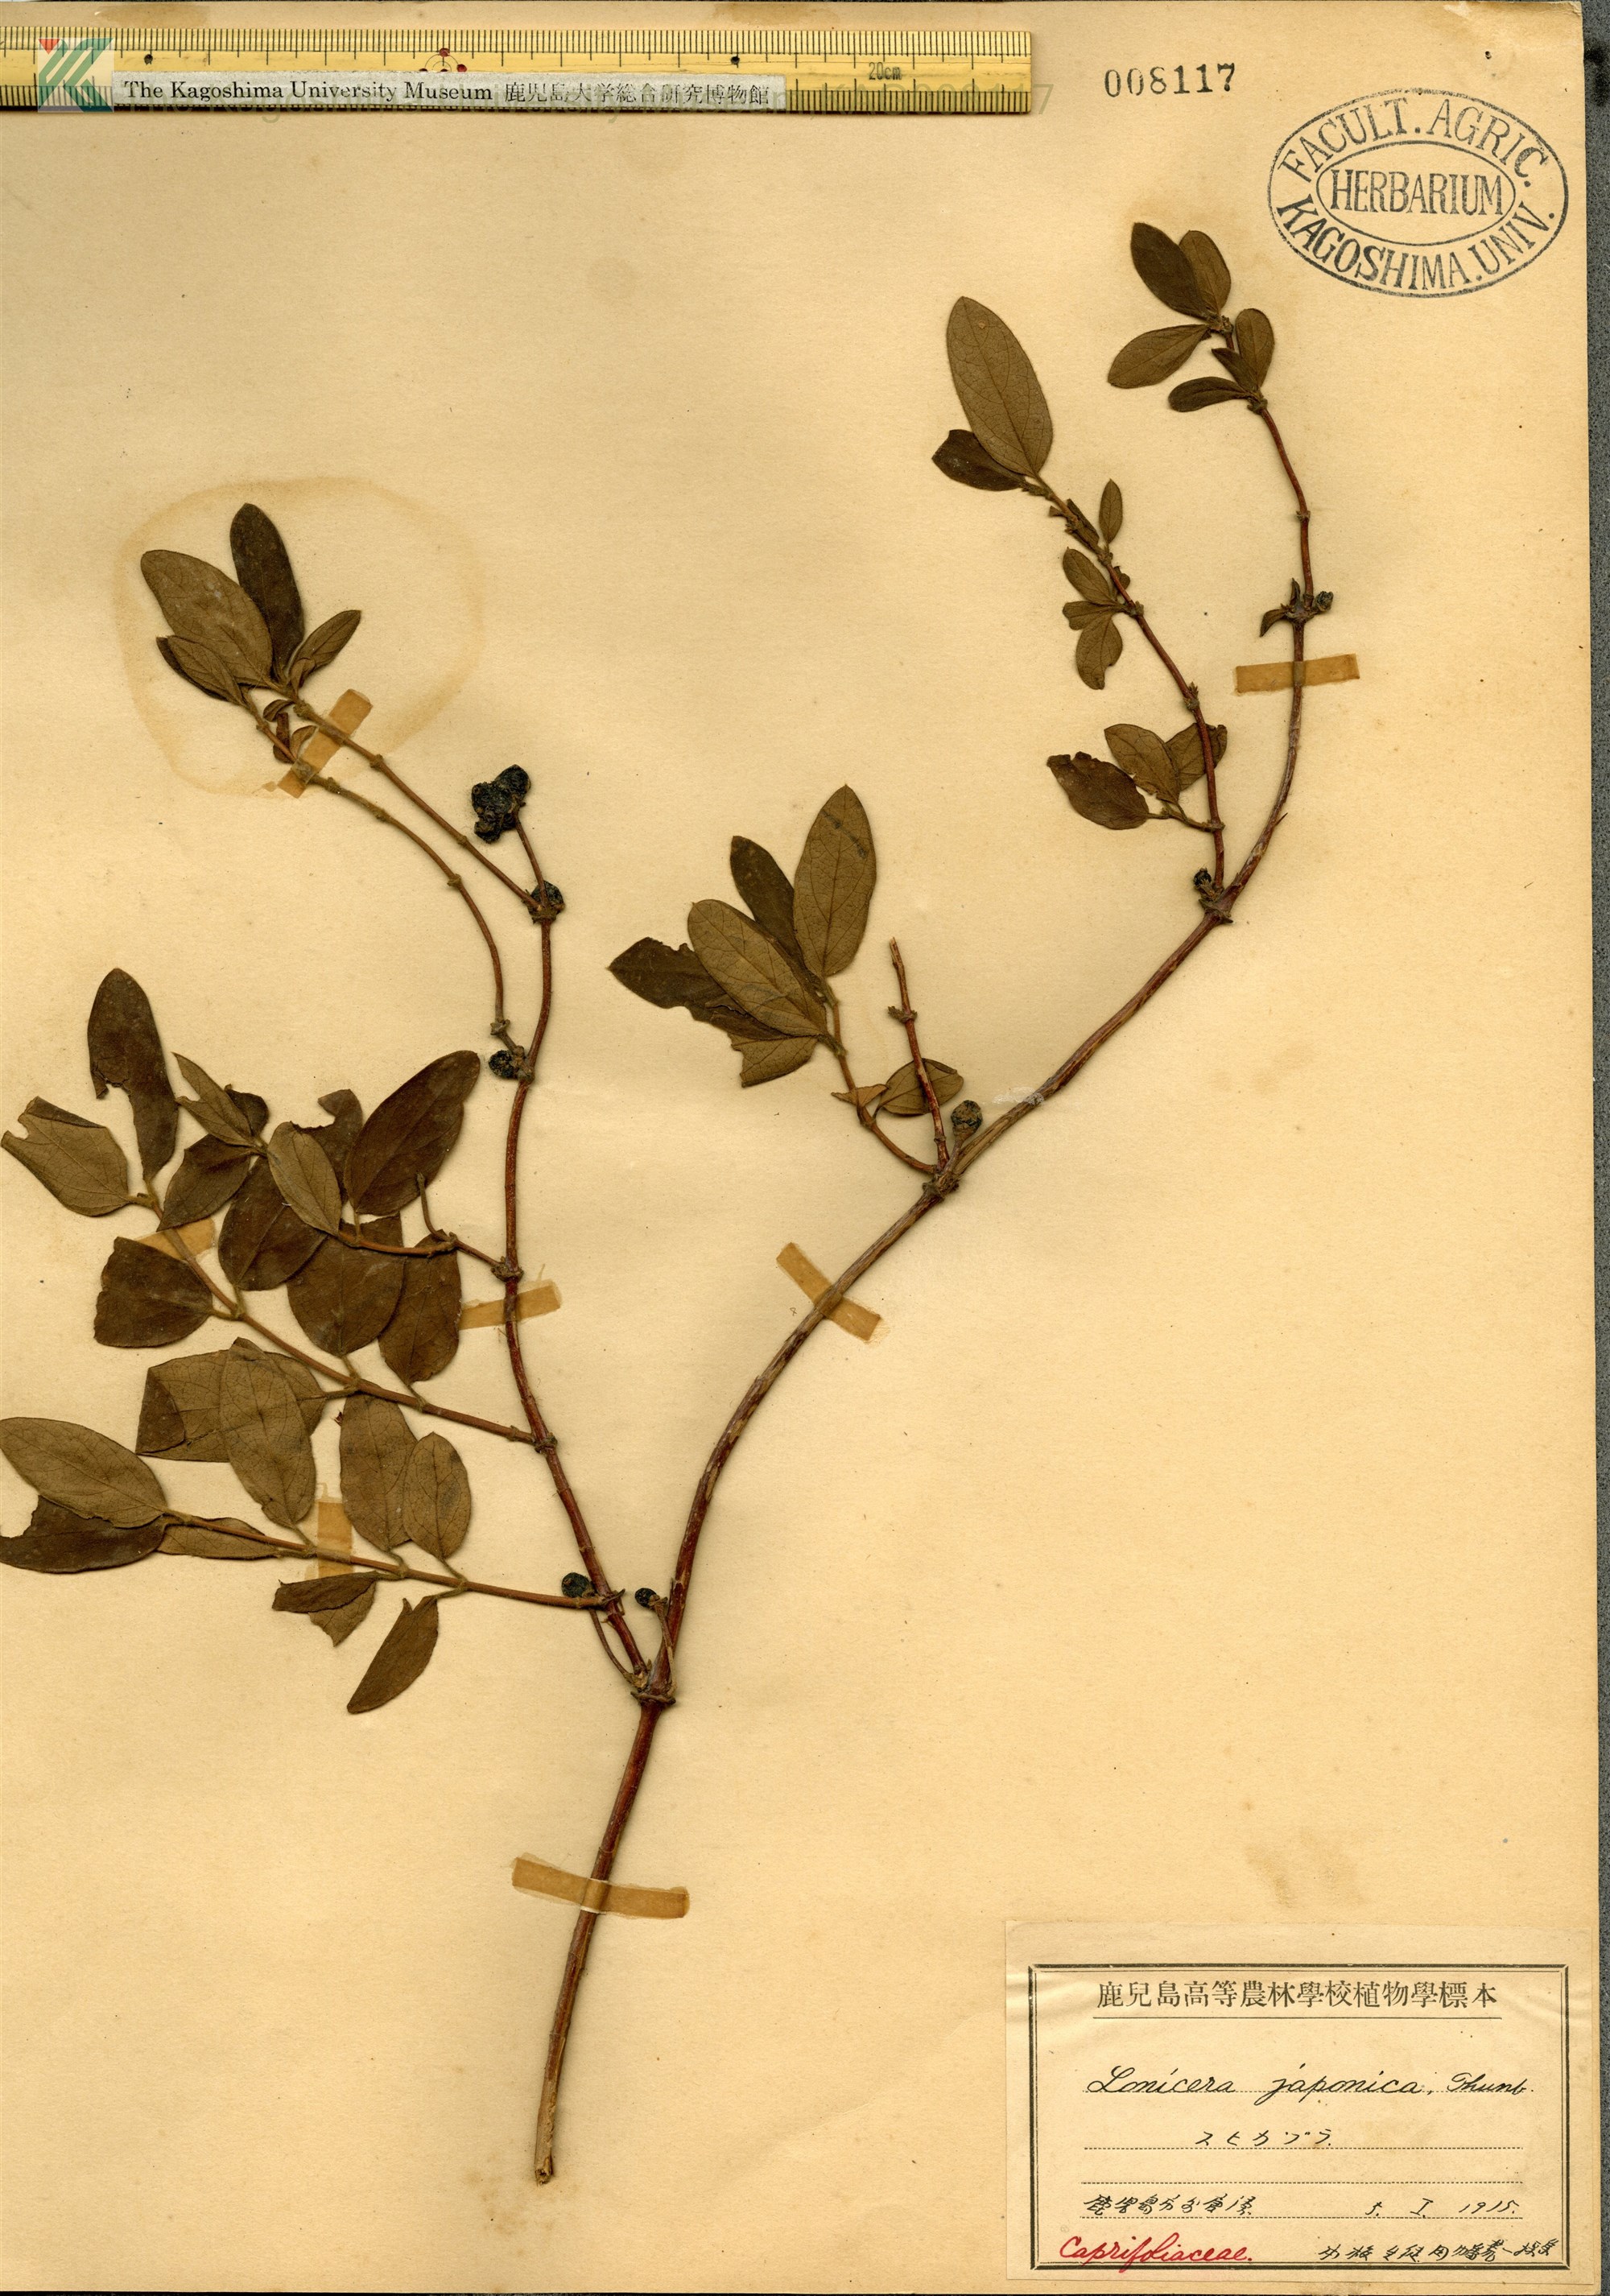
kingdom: Plantae
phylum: Tracheophyta
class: Magnoliopsida
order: Dipsacales
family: Caprifoliaceae
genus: Lonicera
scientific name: Lonicera japonica
